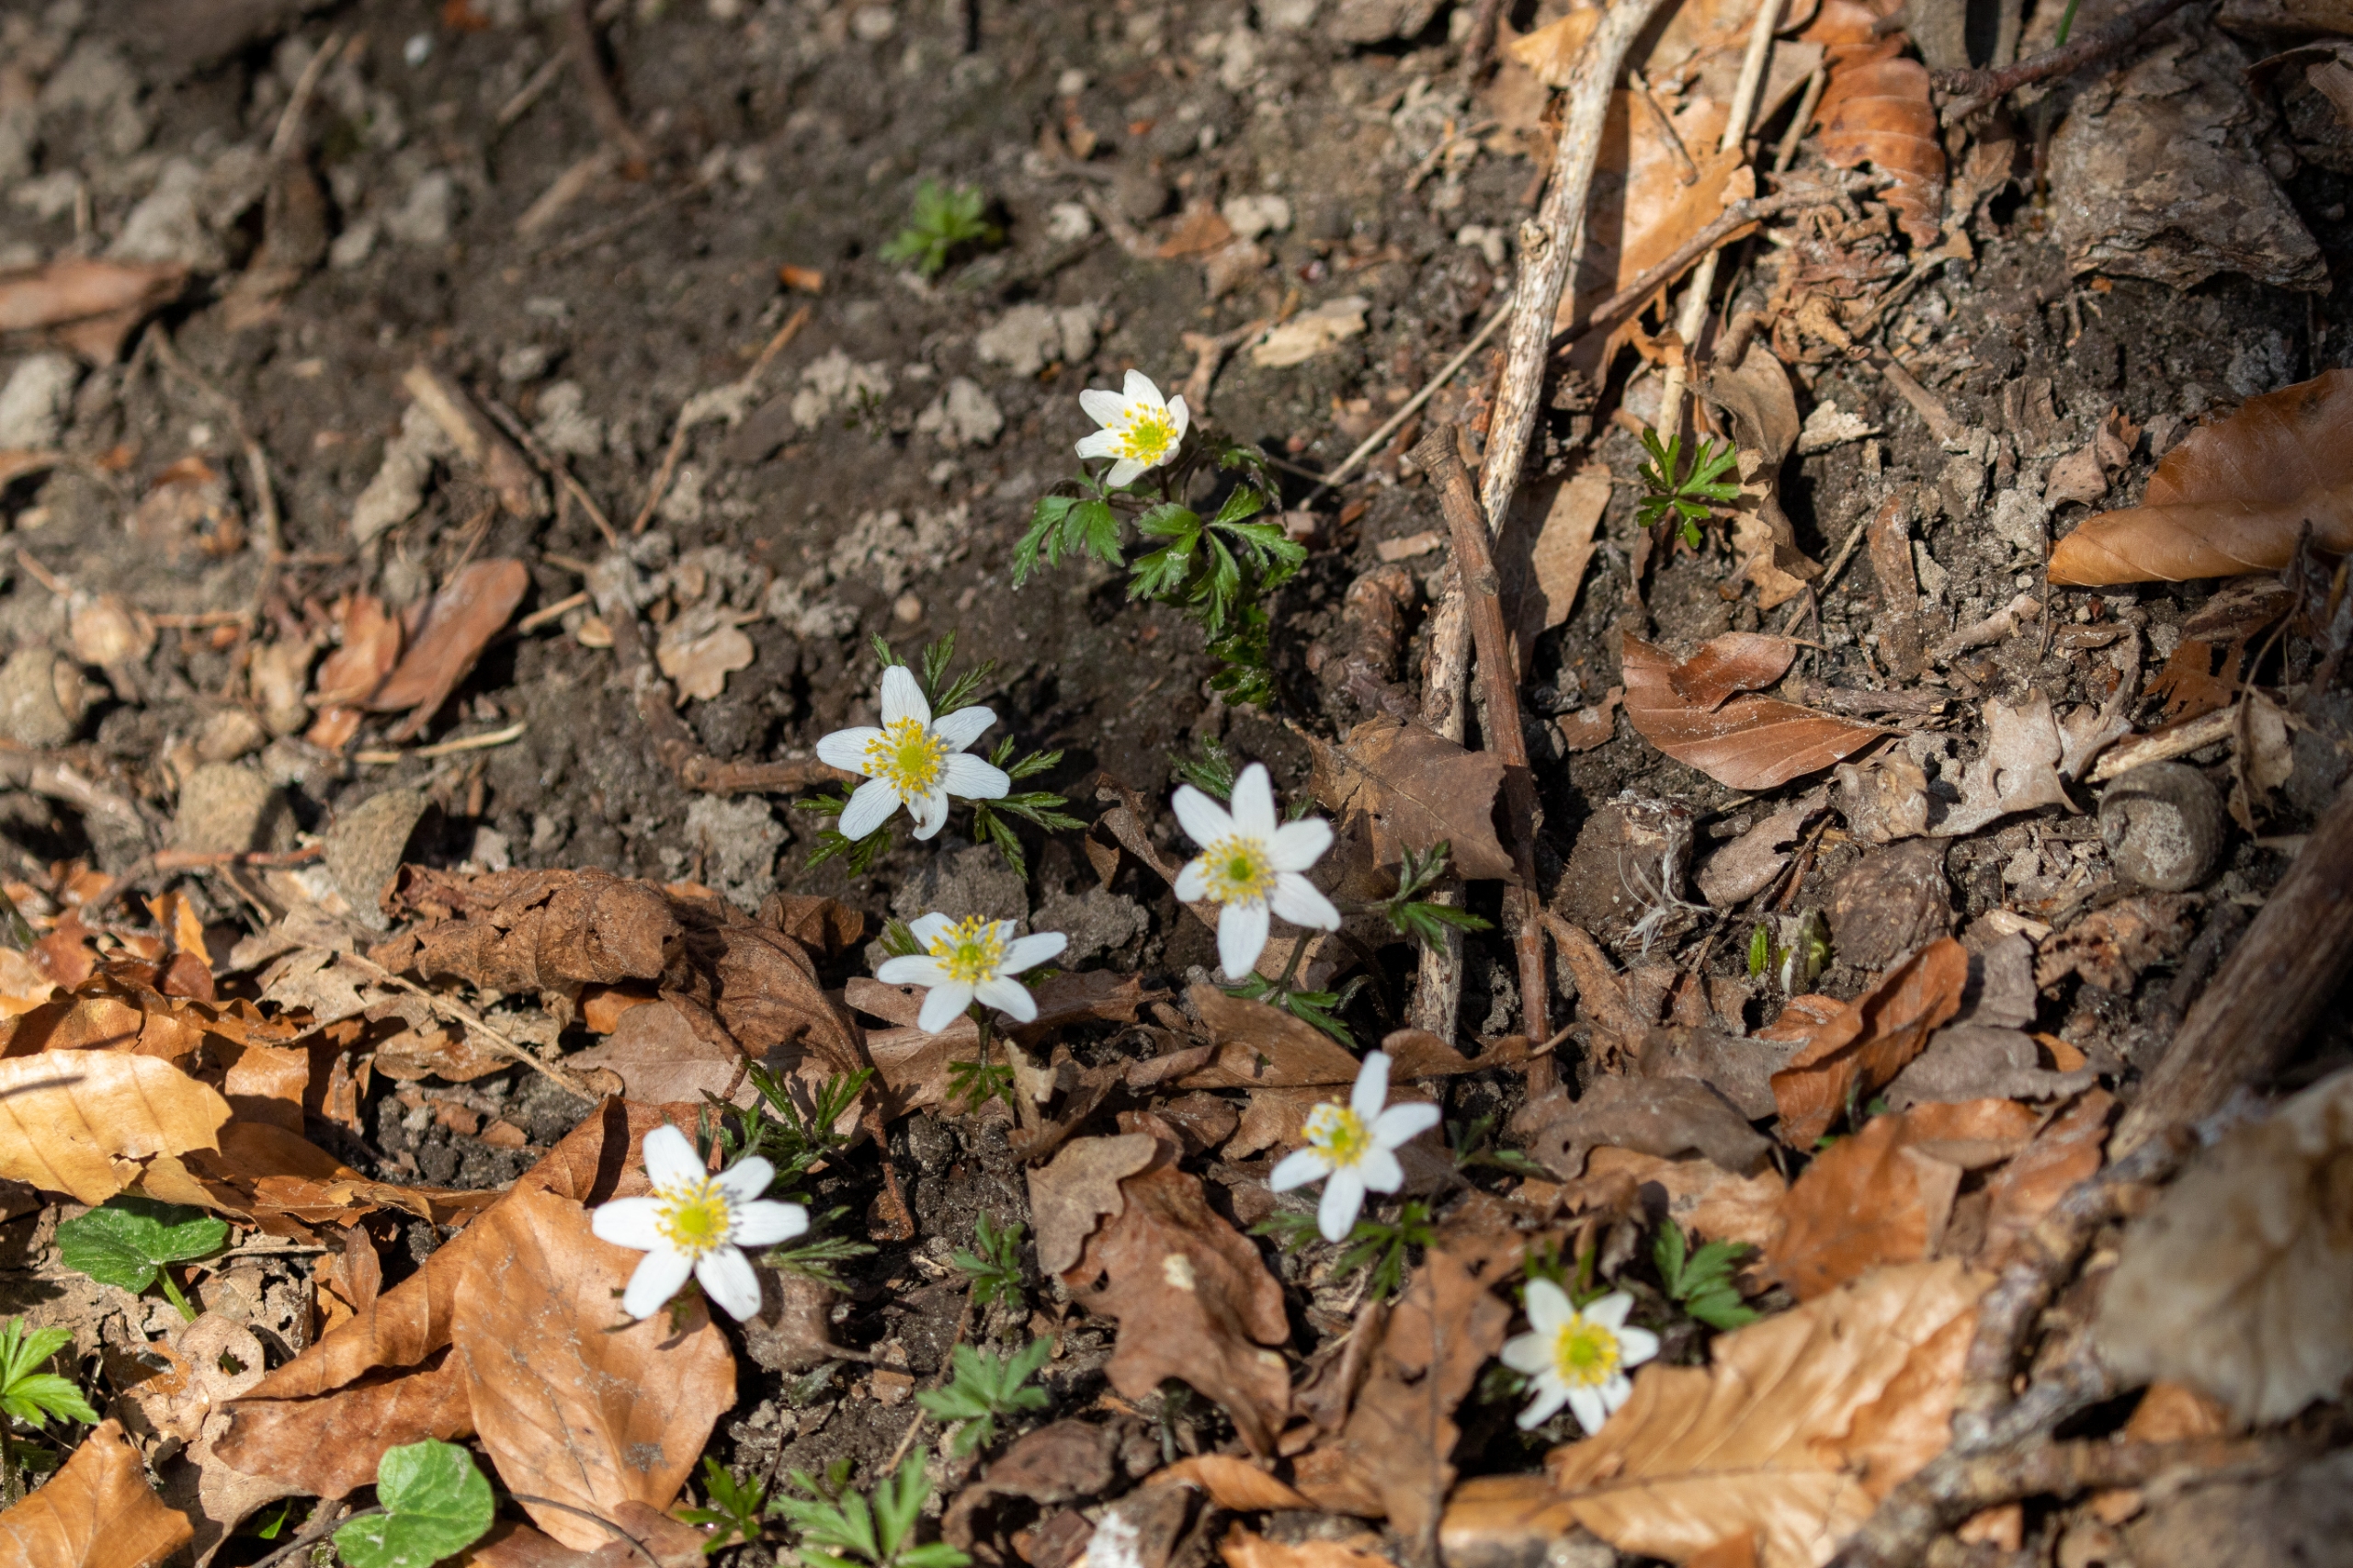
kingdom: Plantae
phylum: Tracheophyta
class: Magnoliopsida
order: Ranunculales
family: Ranunculaceae
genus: Anemone
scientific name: Anemone nemorosa
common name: Hvid anemone
